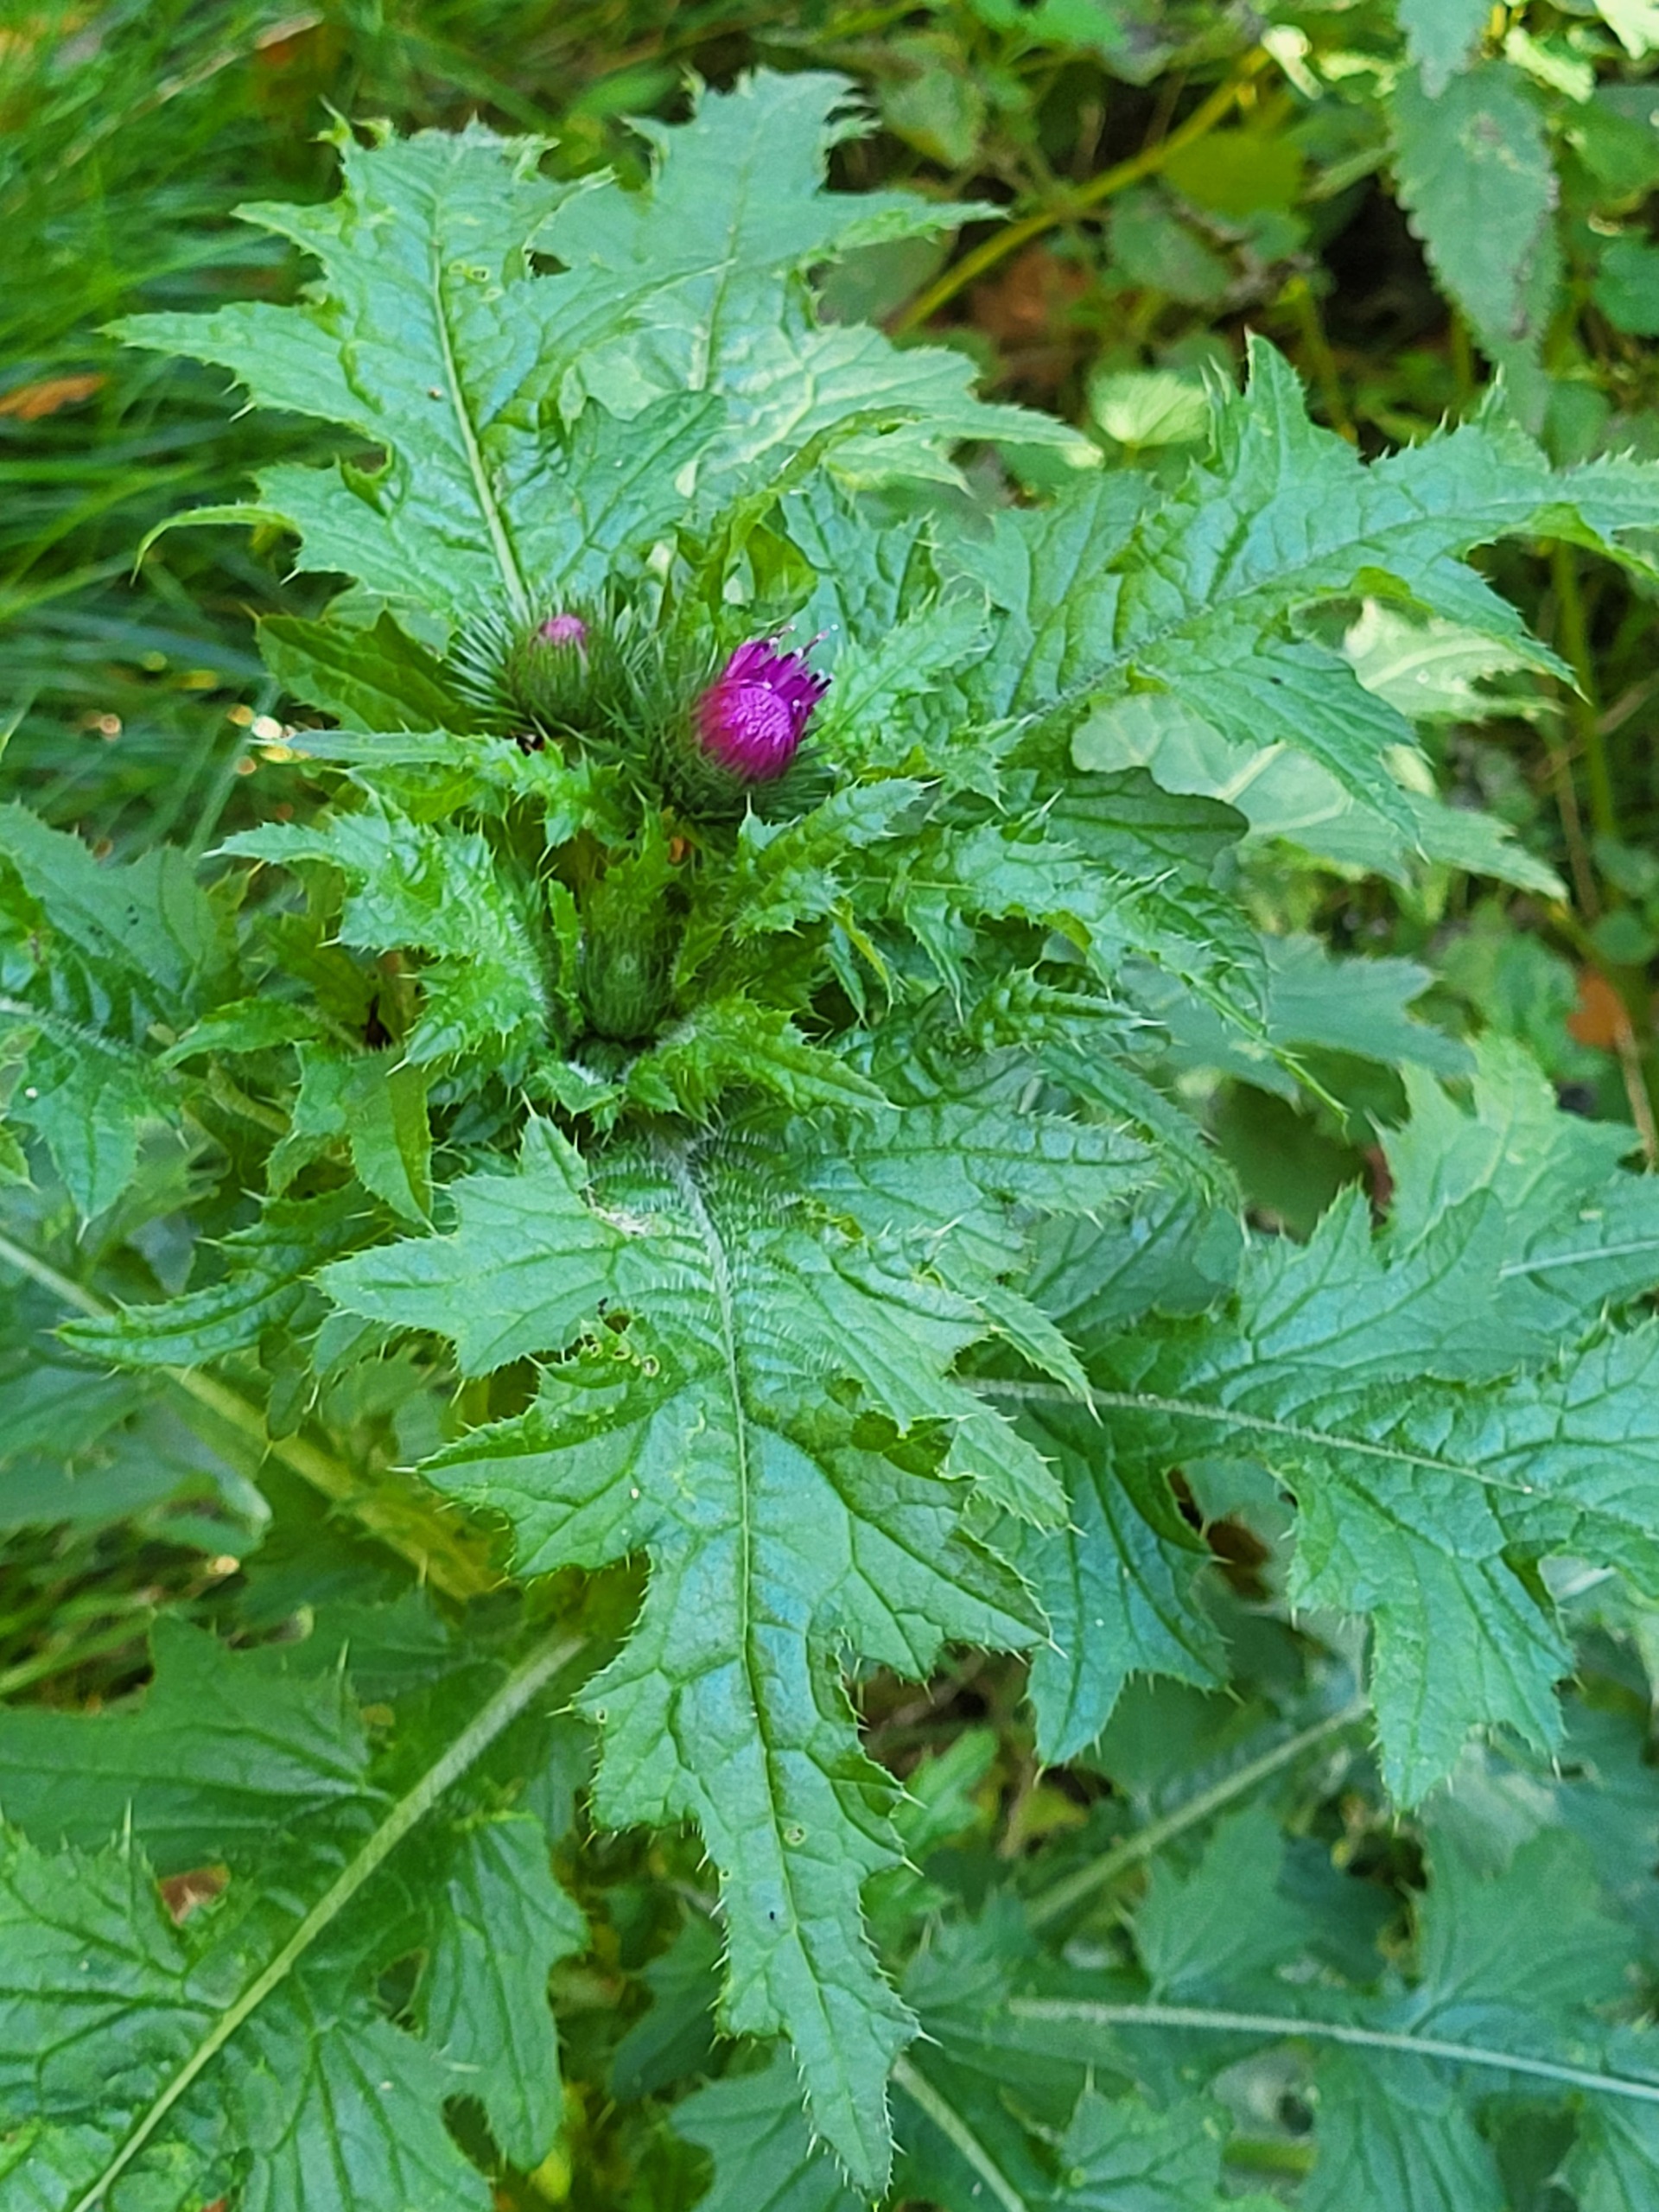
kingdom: Plantae
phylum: Tracheophyta
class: Magnoliopsida
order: Asterales
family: Asteraceae
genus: Carduus
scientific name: Carduus crispus
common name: Kruset tidsel
